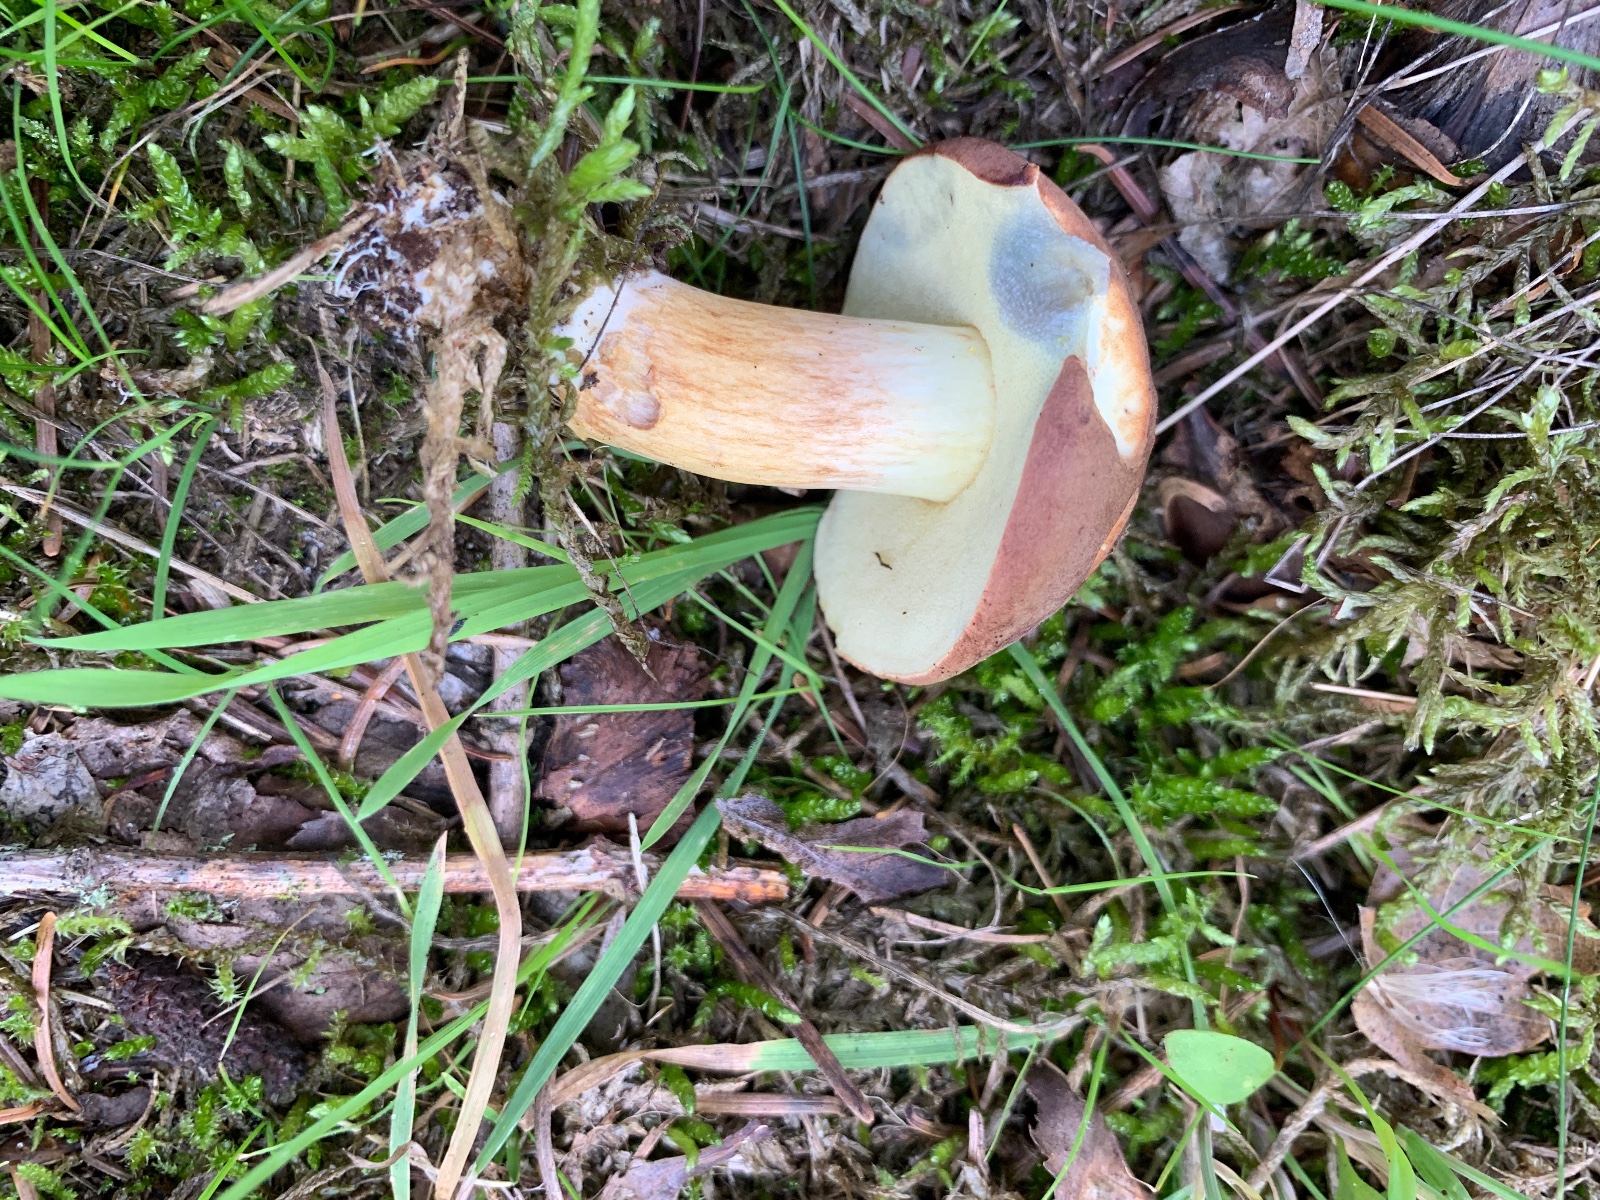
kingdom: Fungi
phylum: Basidiomycota
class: Agaricomycetes
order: Boletales
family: Boletaceae
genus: Imleria
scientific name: Imleria badia
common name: brunstokket rørhat
